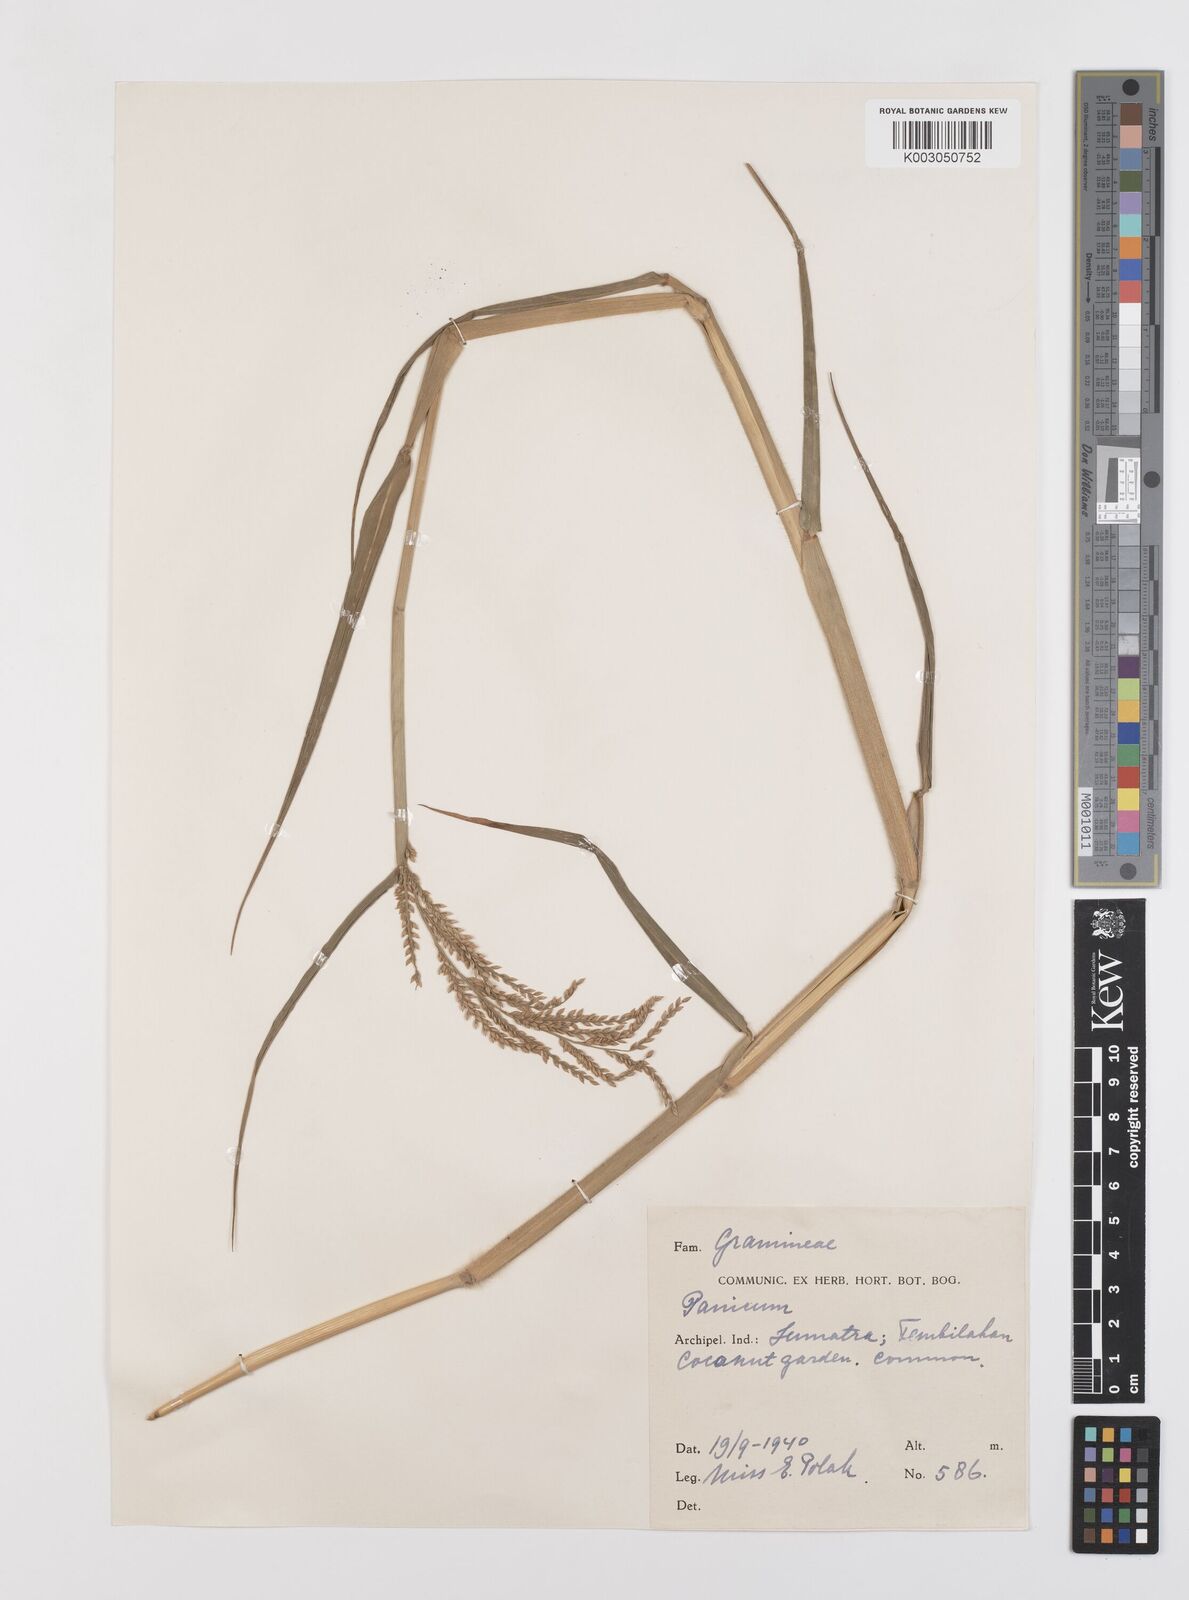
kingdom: Plantae
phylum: Tracheophyta
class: Liliopsida
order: Poales
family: Poaceae
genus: Urochloa
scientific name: Urochloa mutica
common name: Para grass
